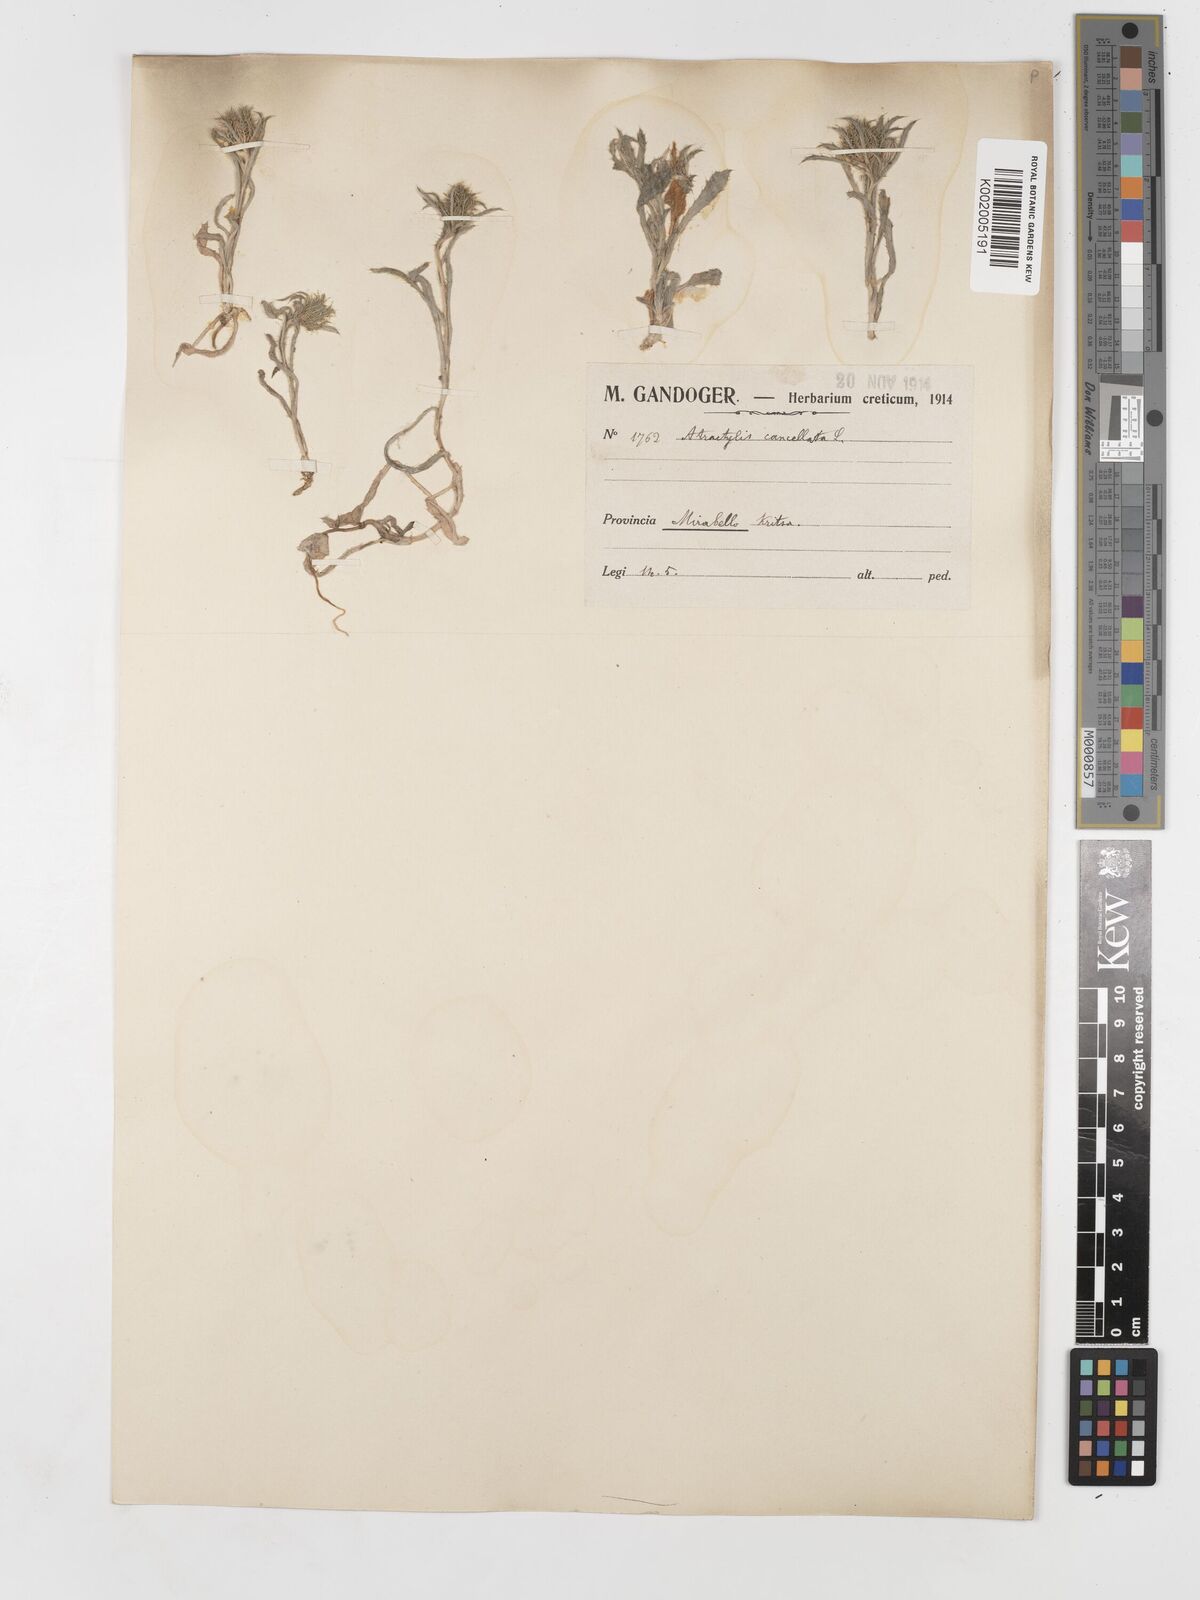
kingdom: Plantae
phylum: Tracheophyta
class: Magnoliopsida
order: Asterales
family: Asteraceae
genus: Atractylis
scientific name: Atractylis cancellata
